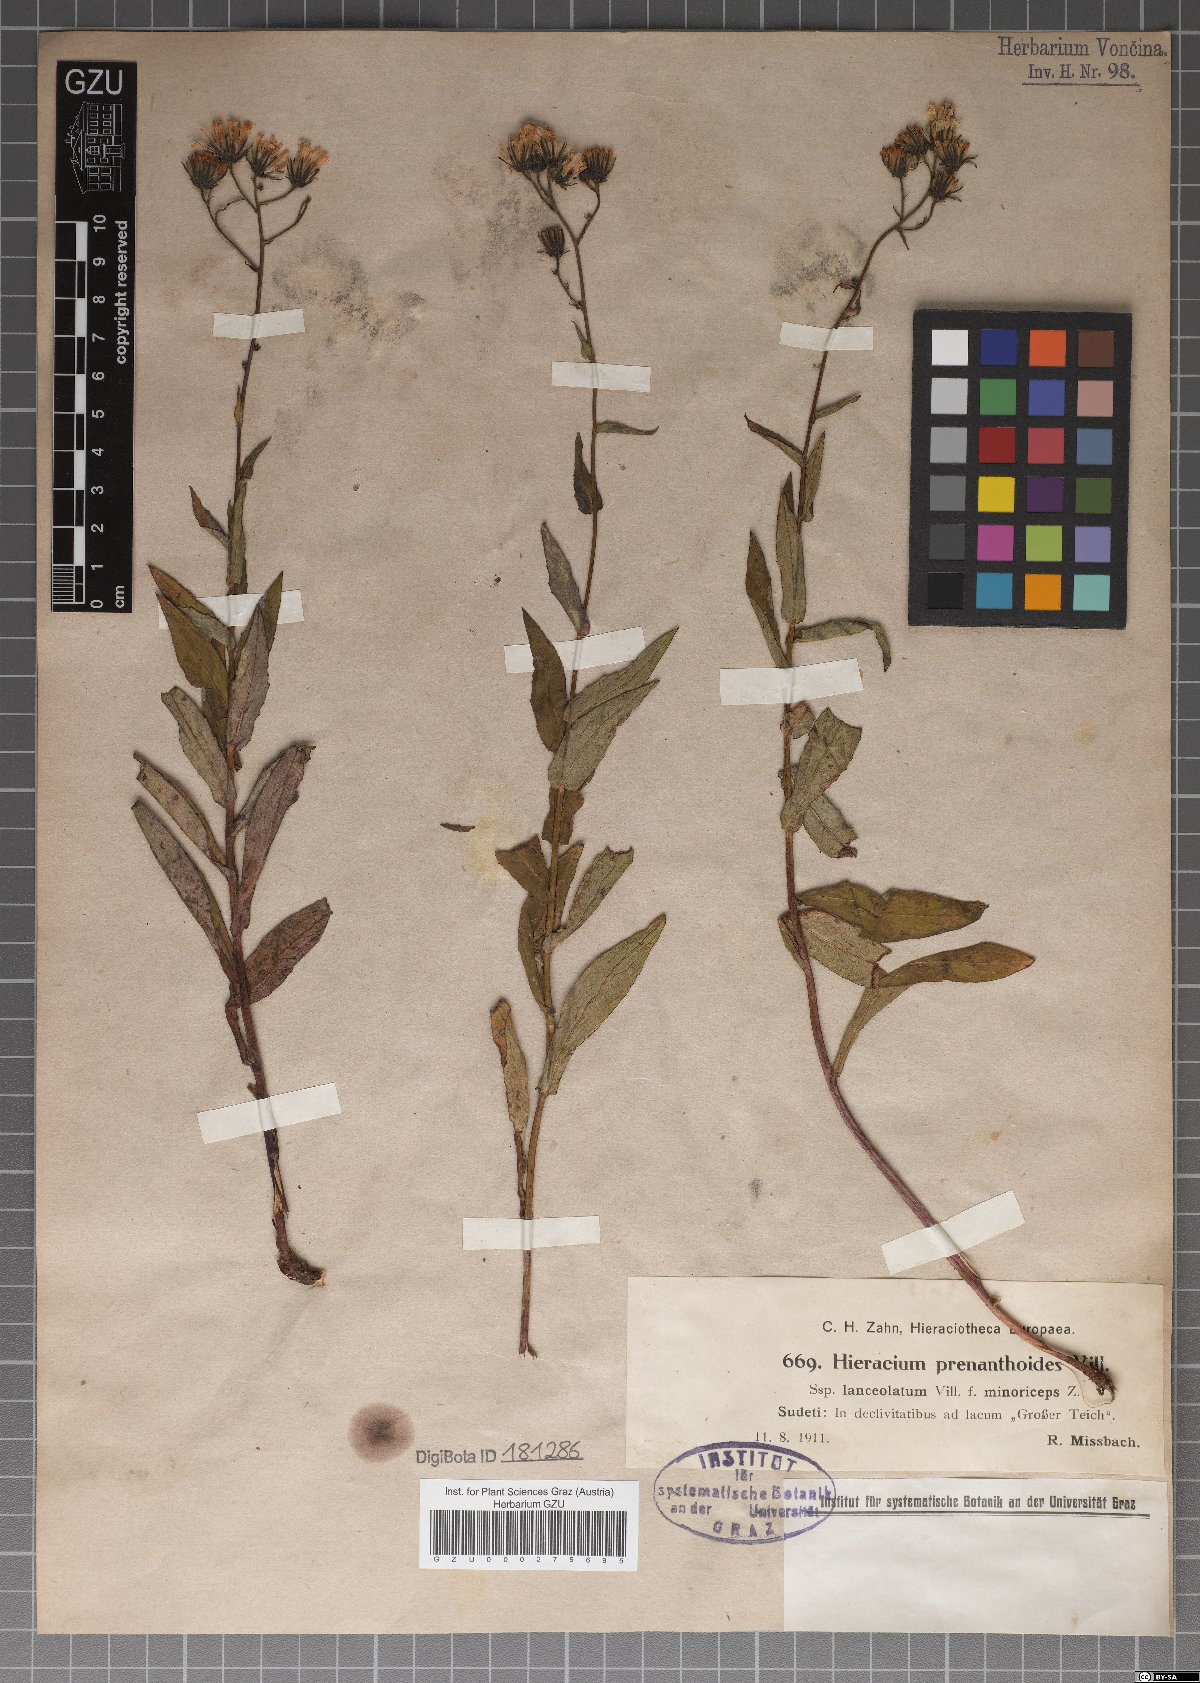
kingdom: Plantae
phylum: Tracheophyta
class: Magnoliopsida
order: Asterales
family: Asteraceae
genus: Hieracium
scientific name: Hieracium prenanthoides
